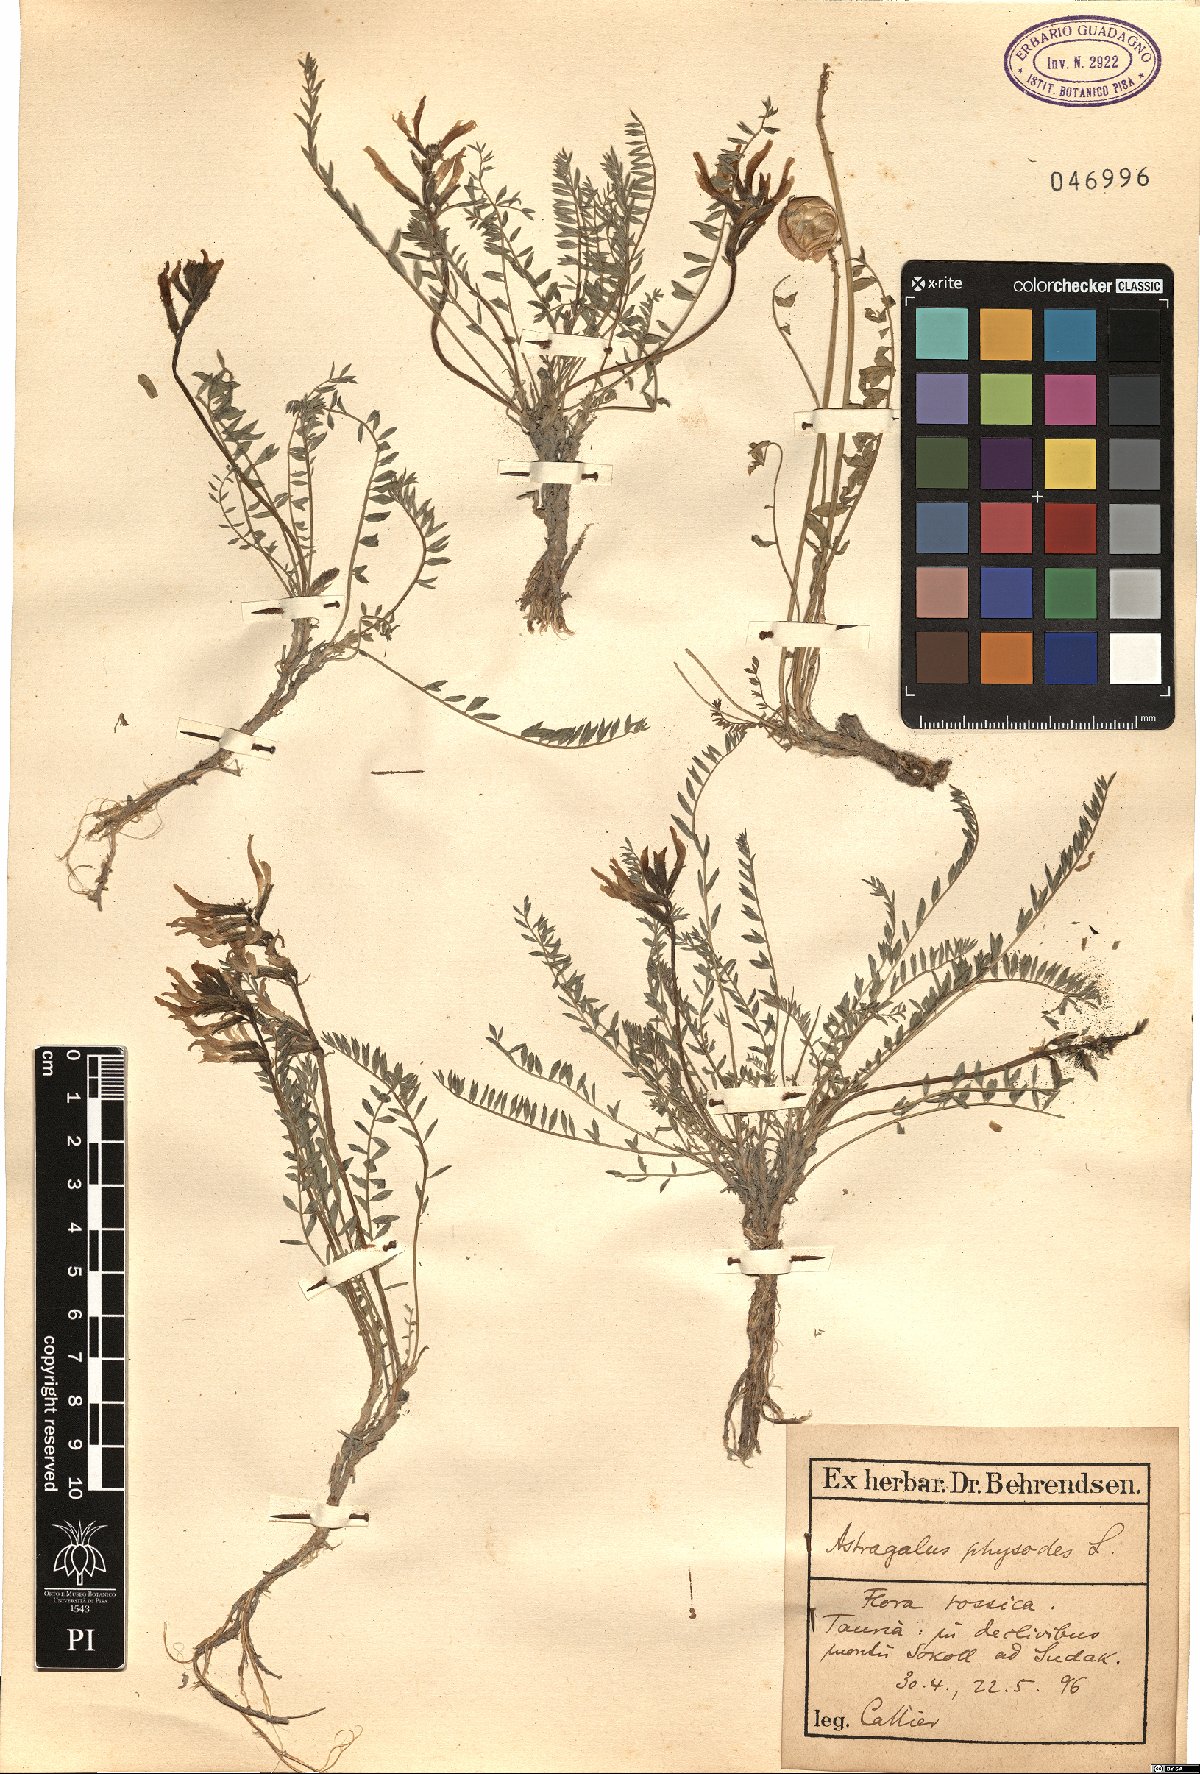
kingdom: Plantae
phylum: Tracheophyta
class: Magnoliopsida
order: Fabales
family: Fabaceae
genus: Astragalus
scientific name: Astragalus physodes
